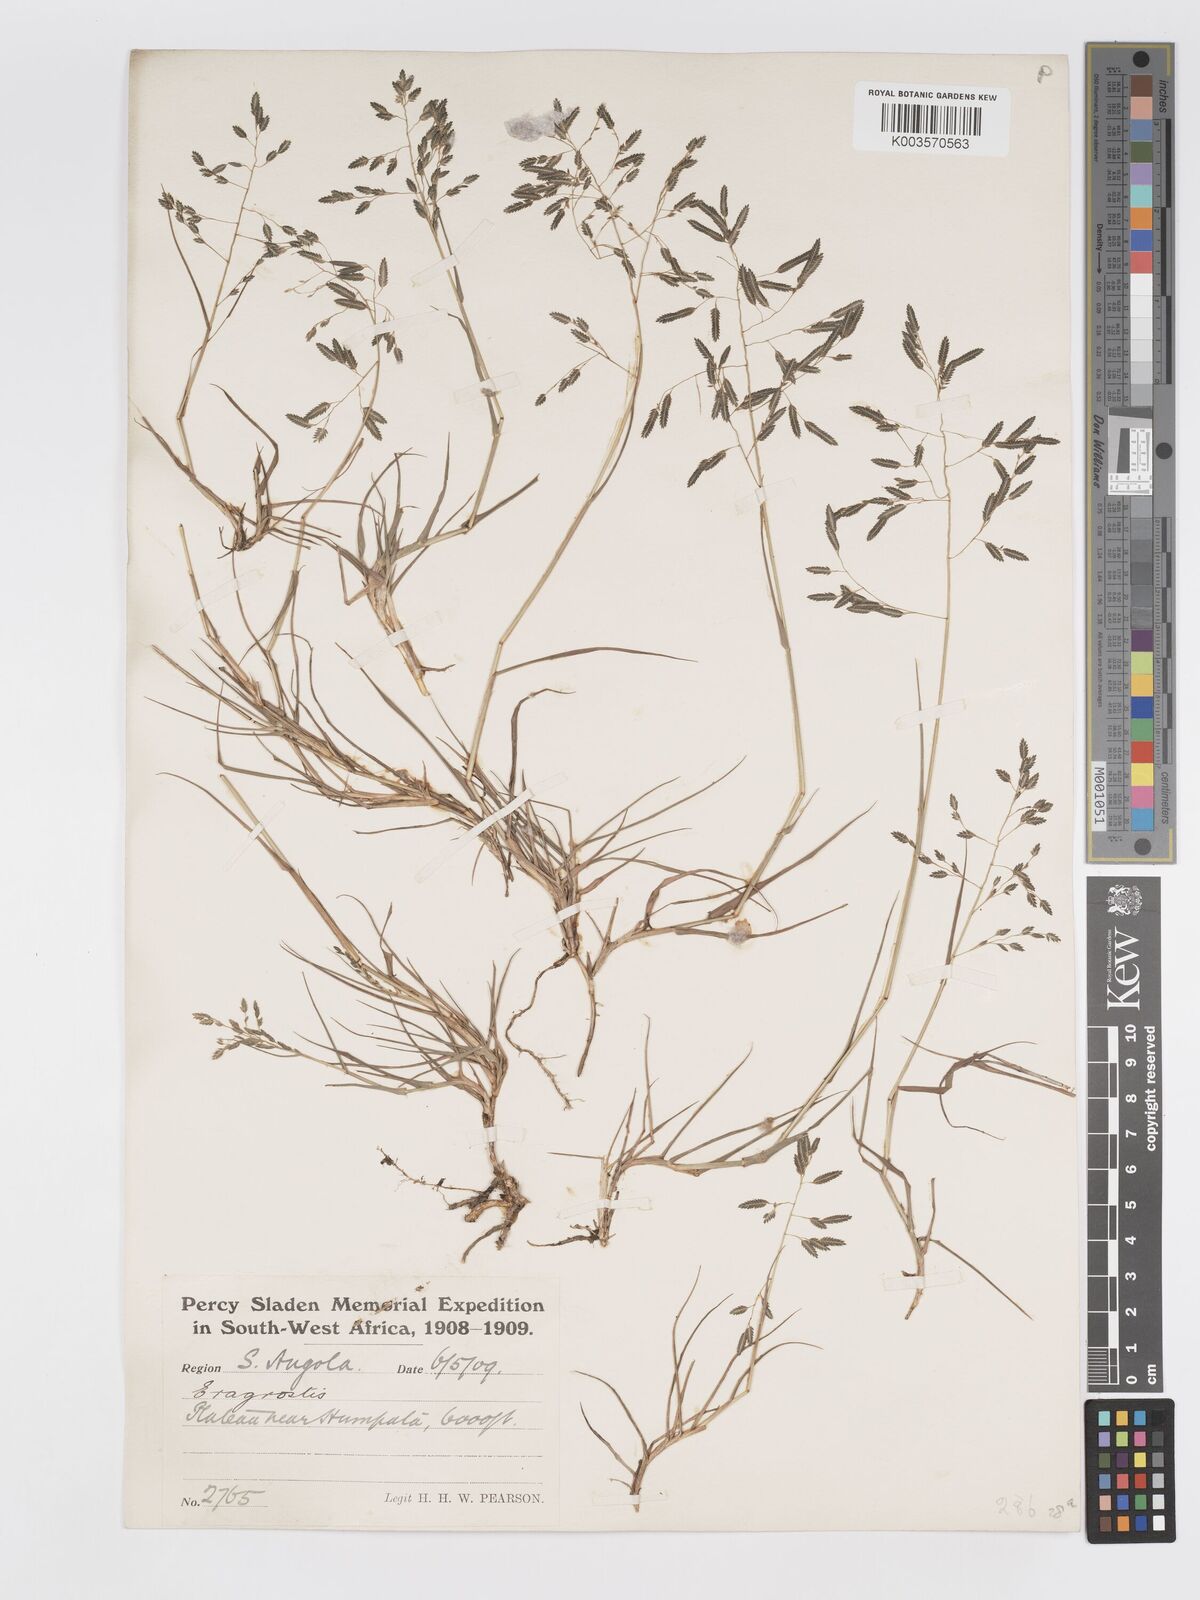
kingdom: Plantae
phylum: Tracheophyta
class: Liliopsida
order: Poales
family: Poaceae
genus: Eragrostis
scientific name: Eragrostis inamoena
